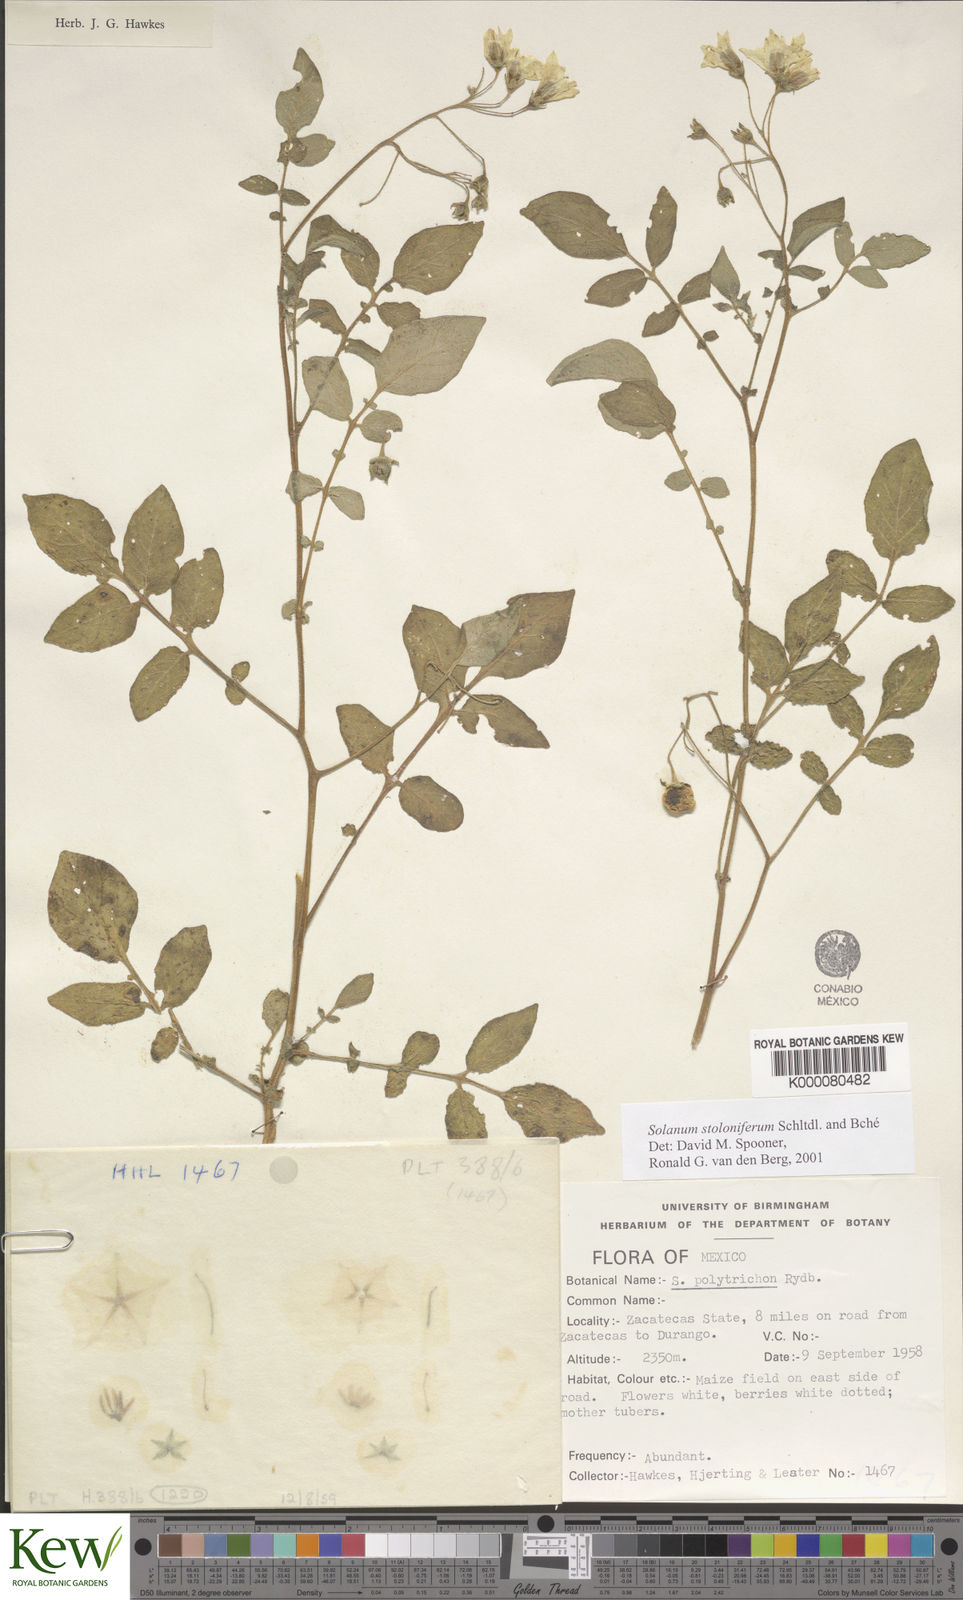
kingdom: Plantae
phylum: Tracheophyta
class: Magnoliopsida
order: Solanales
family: Solanaceae
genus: Solanum
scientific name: Solanum stoloniferum
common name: Fendler's nighshade
